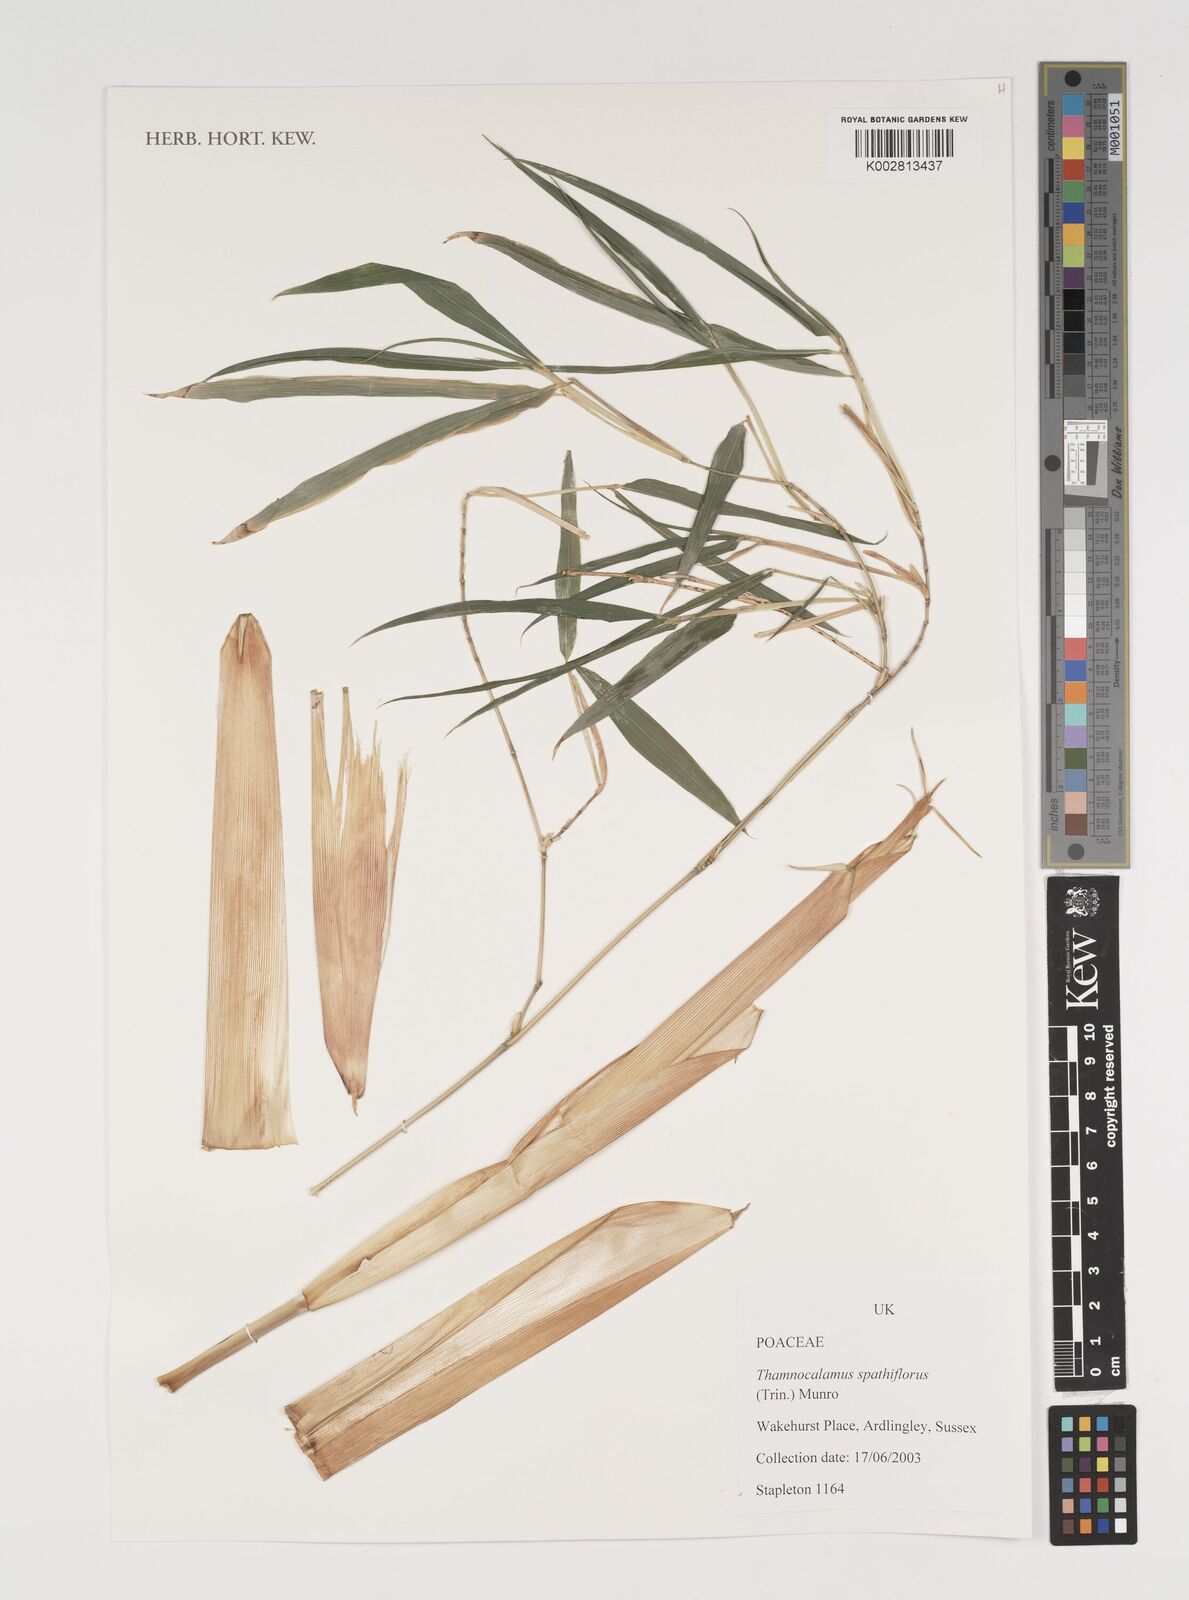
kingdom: Plantae
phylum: Tracheophyta
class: Liliopsida
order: Poales
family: Poaceae
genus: Thamnocalamus
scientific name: Thamnocalamus spathiflorus
